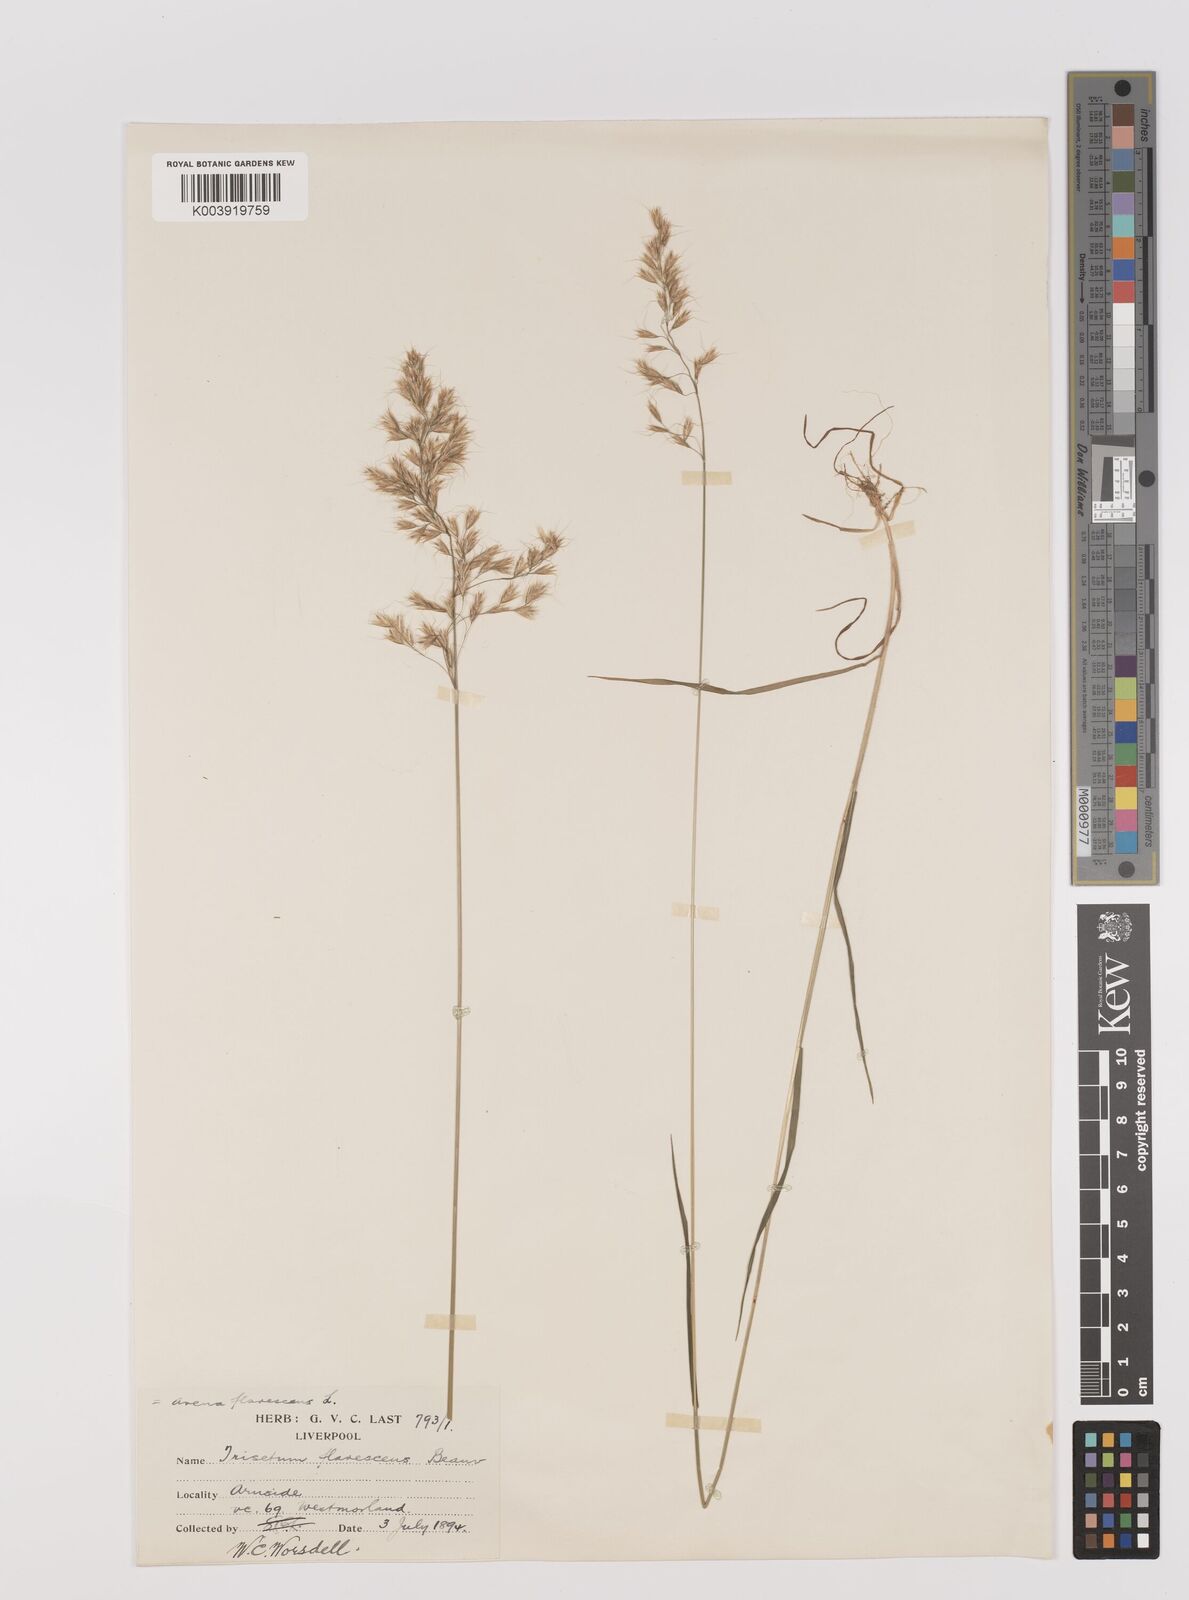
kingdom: Plantae
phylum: Tracheophyta
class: Liliopsida
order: Poales
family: Poaceae
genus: Trisetum
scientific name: Trisetum flavescens
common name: Yellow oat-grass
